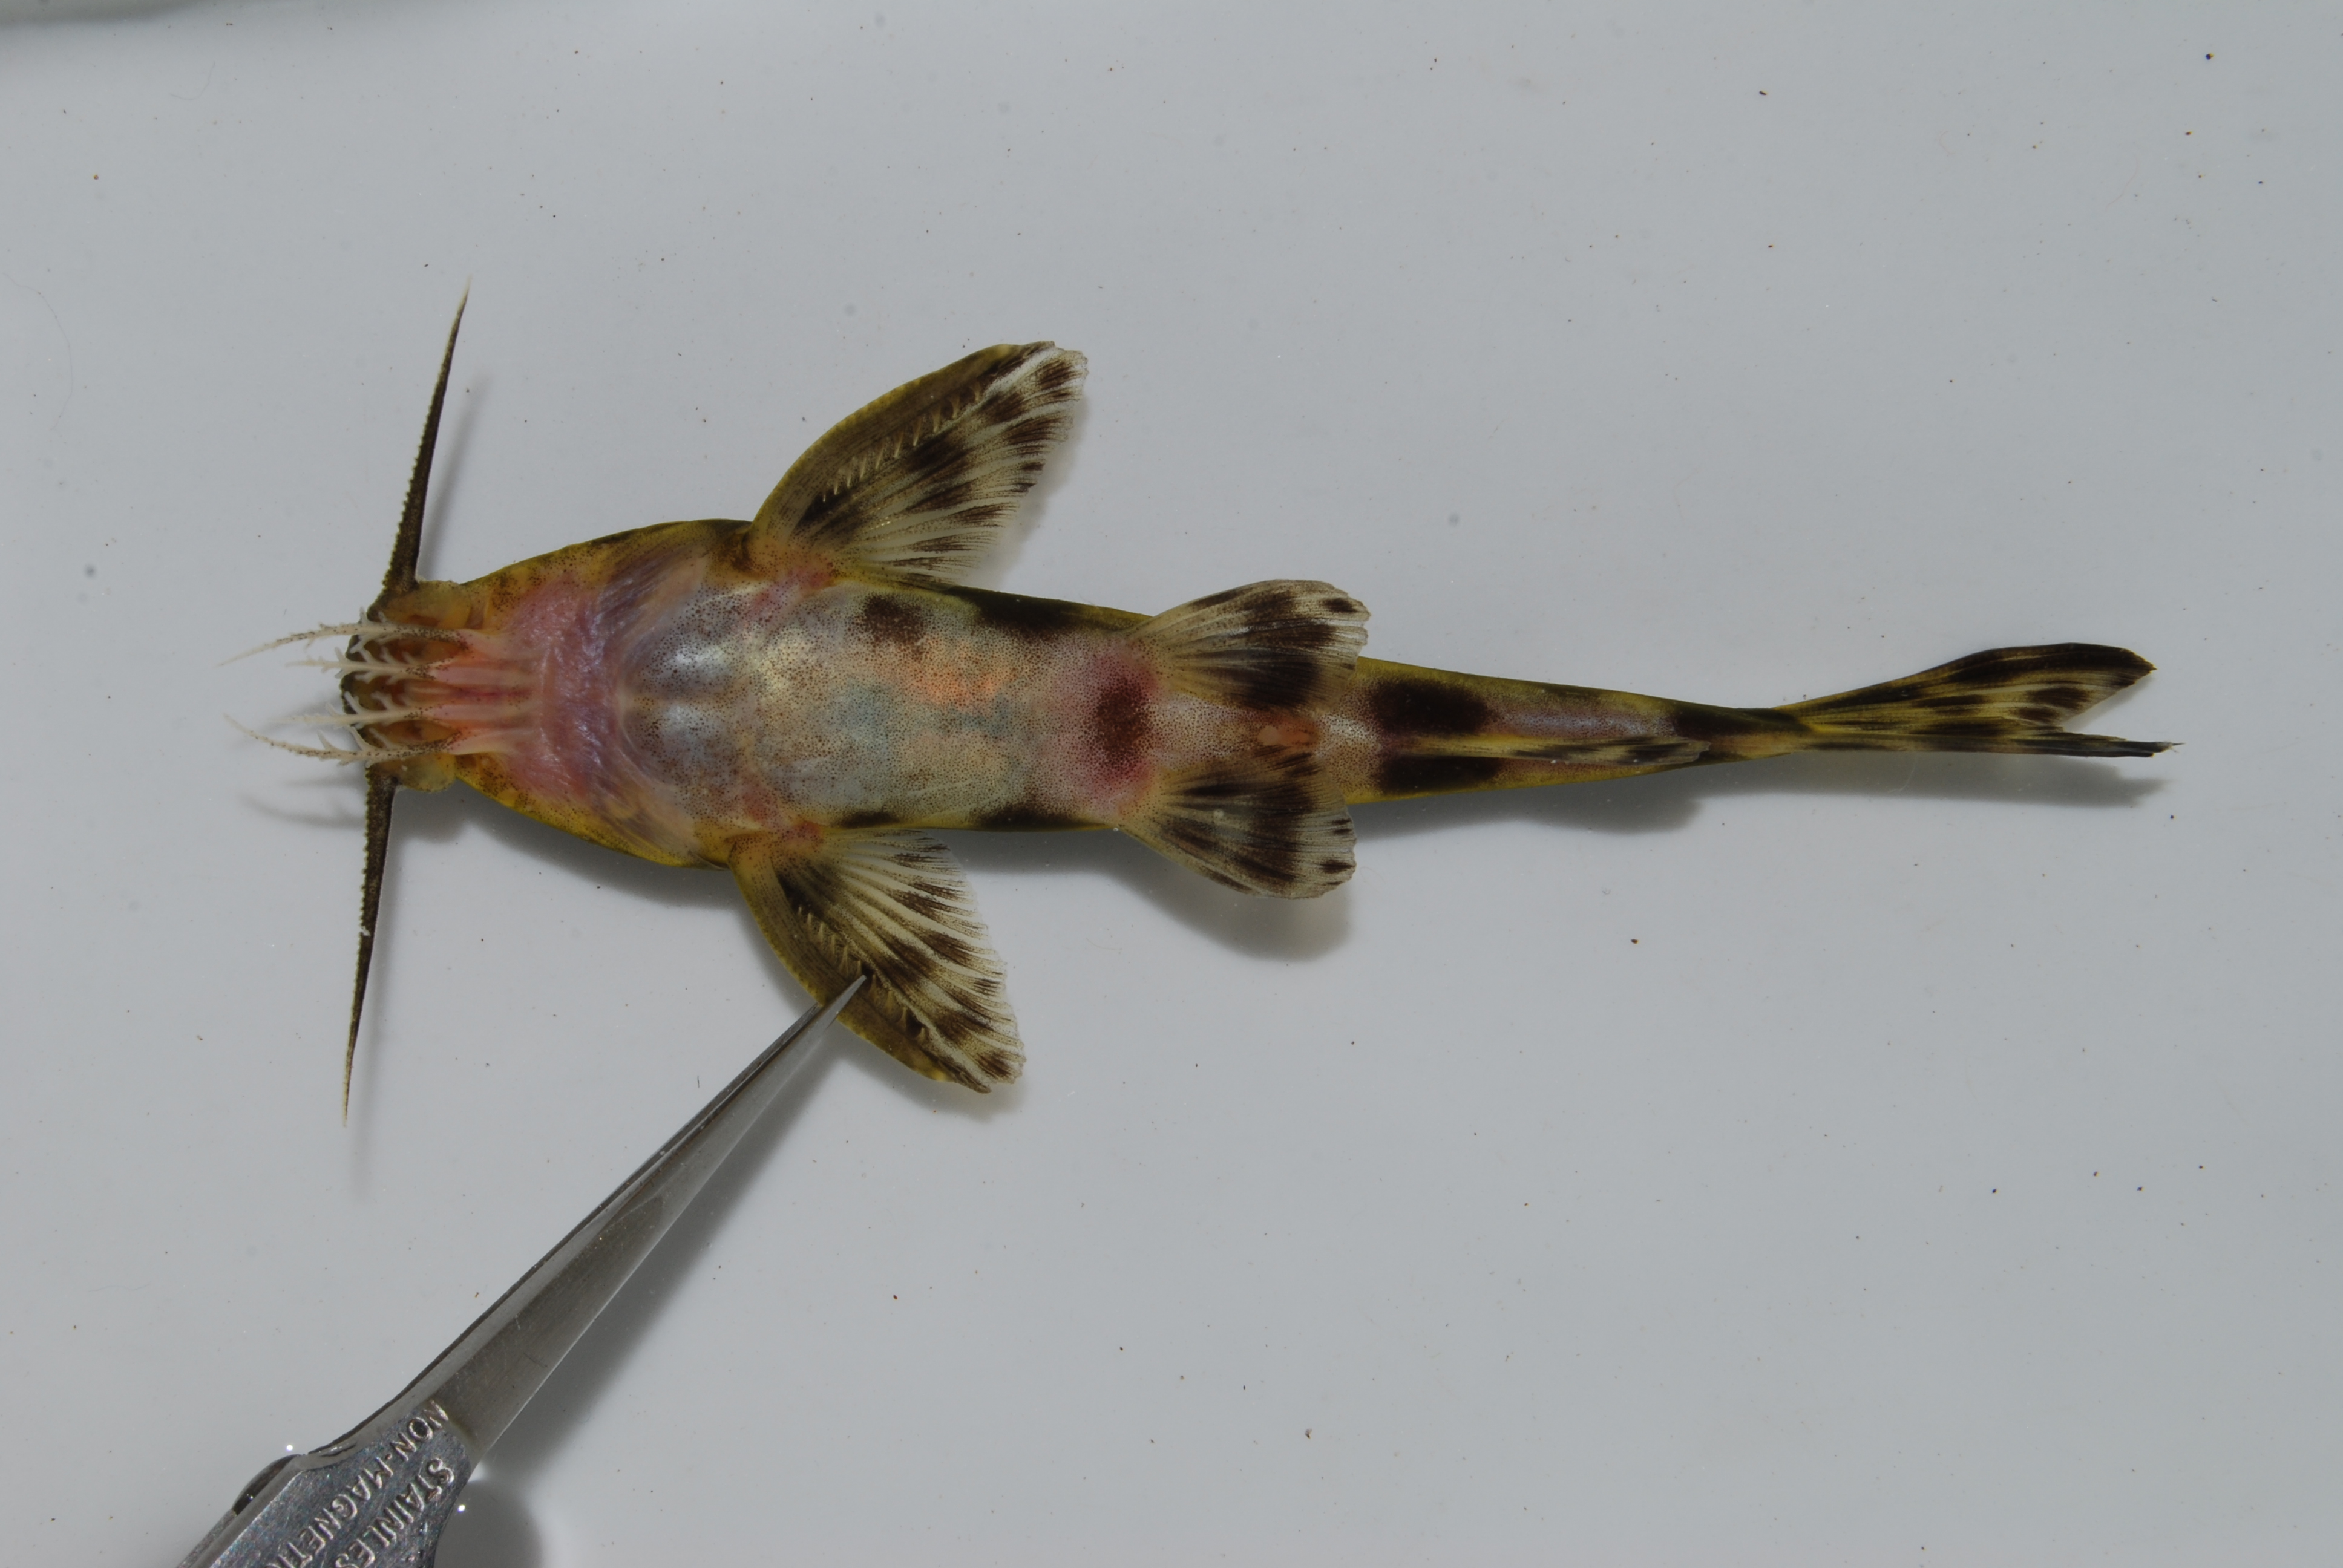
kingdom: Animalia
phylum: Chordata
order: Siluriformes
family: Mochokidae
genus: Synodontis
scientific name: Synodontis macrostoma
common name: Largemouth squeaker
